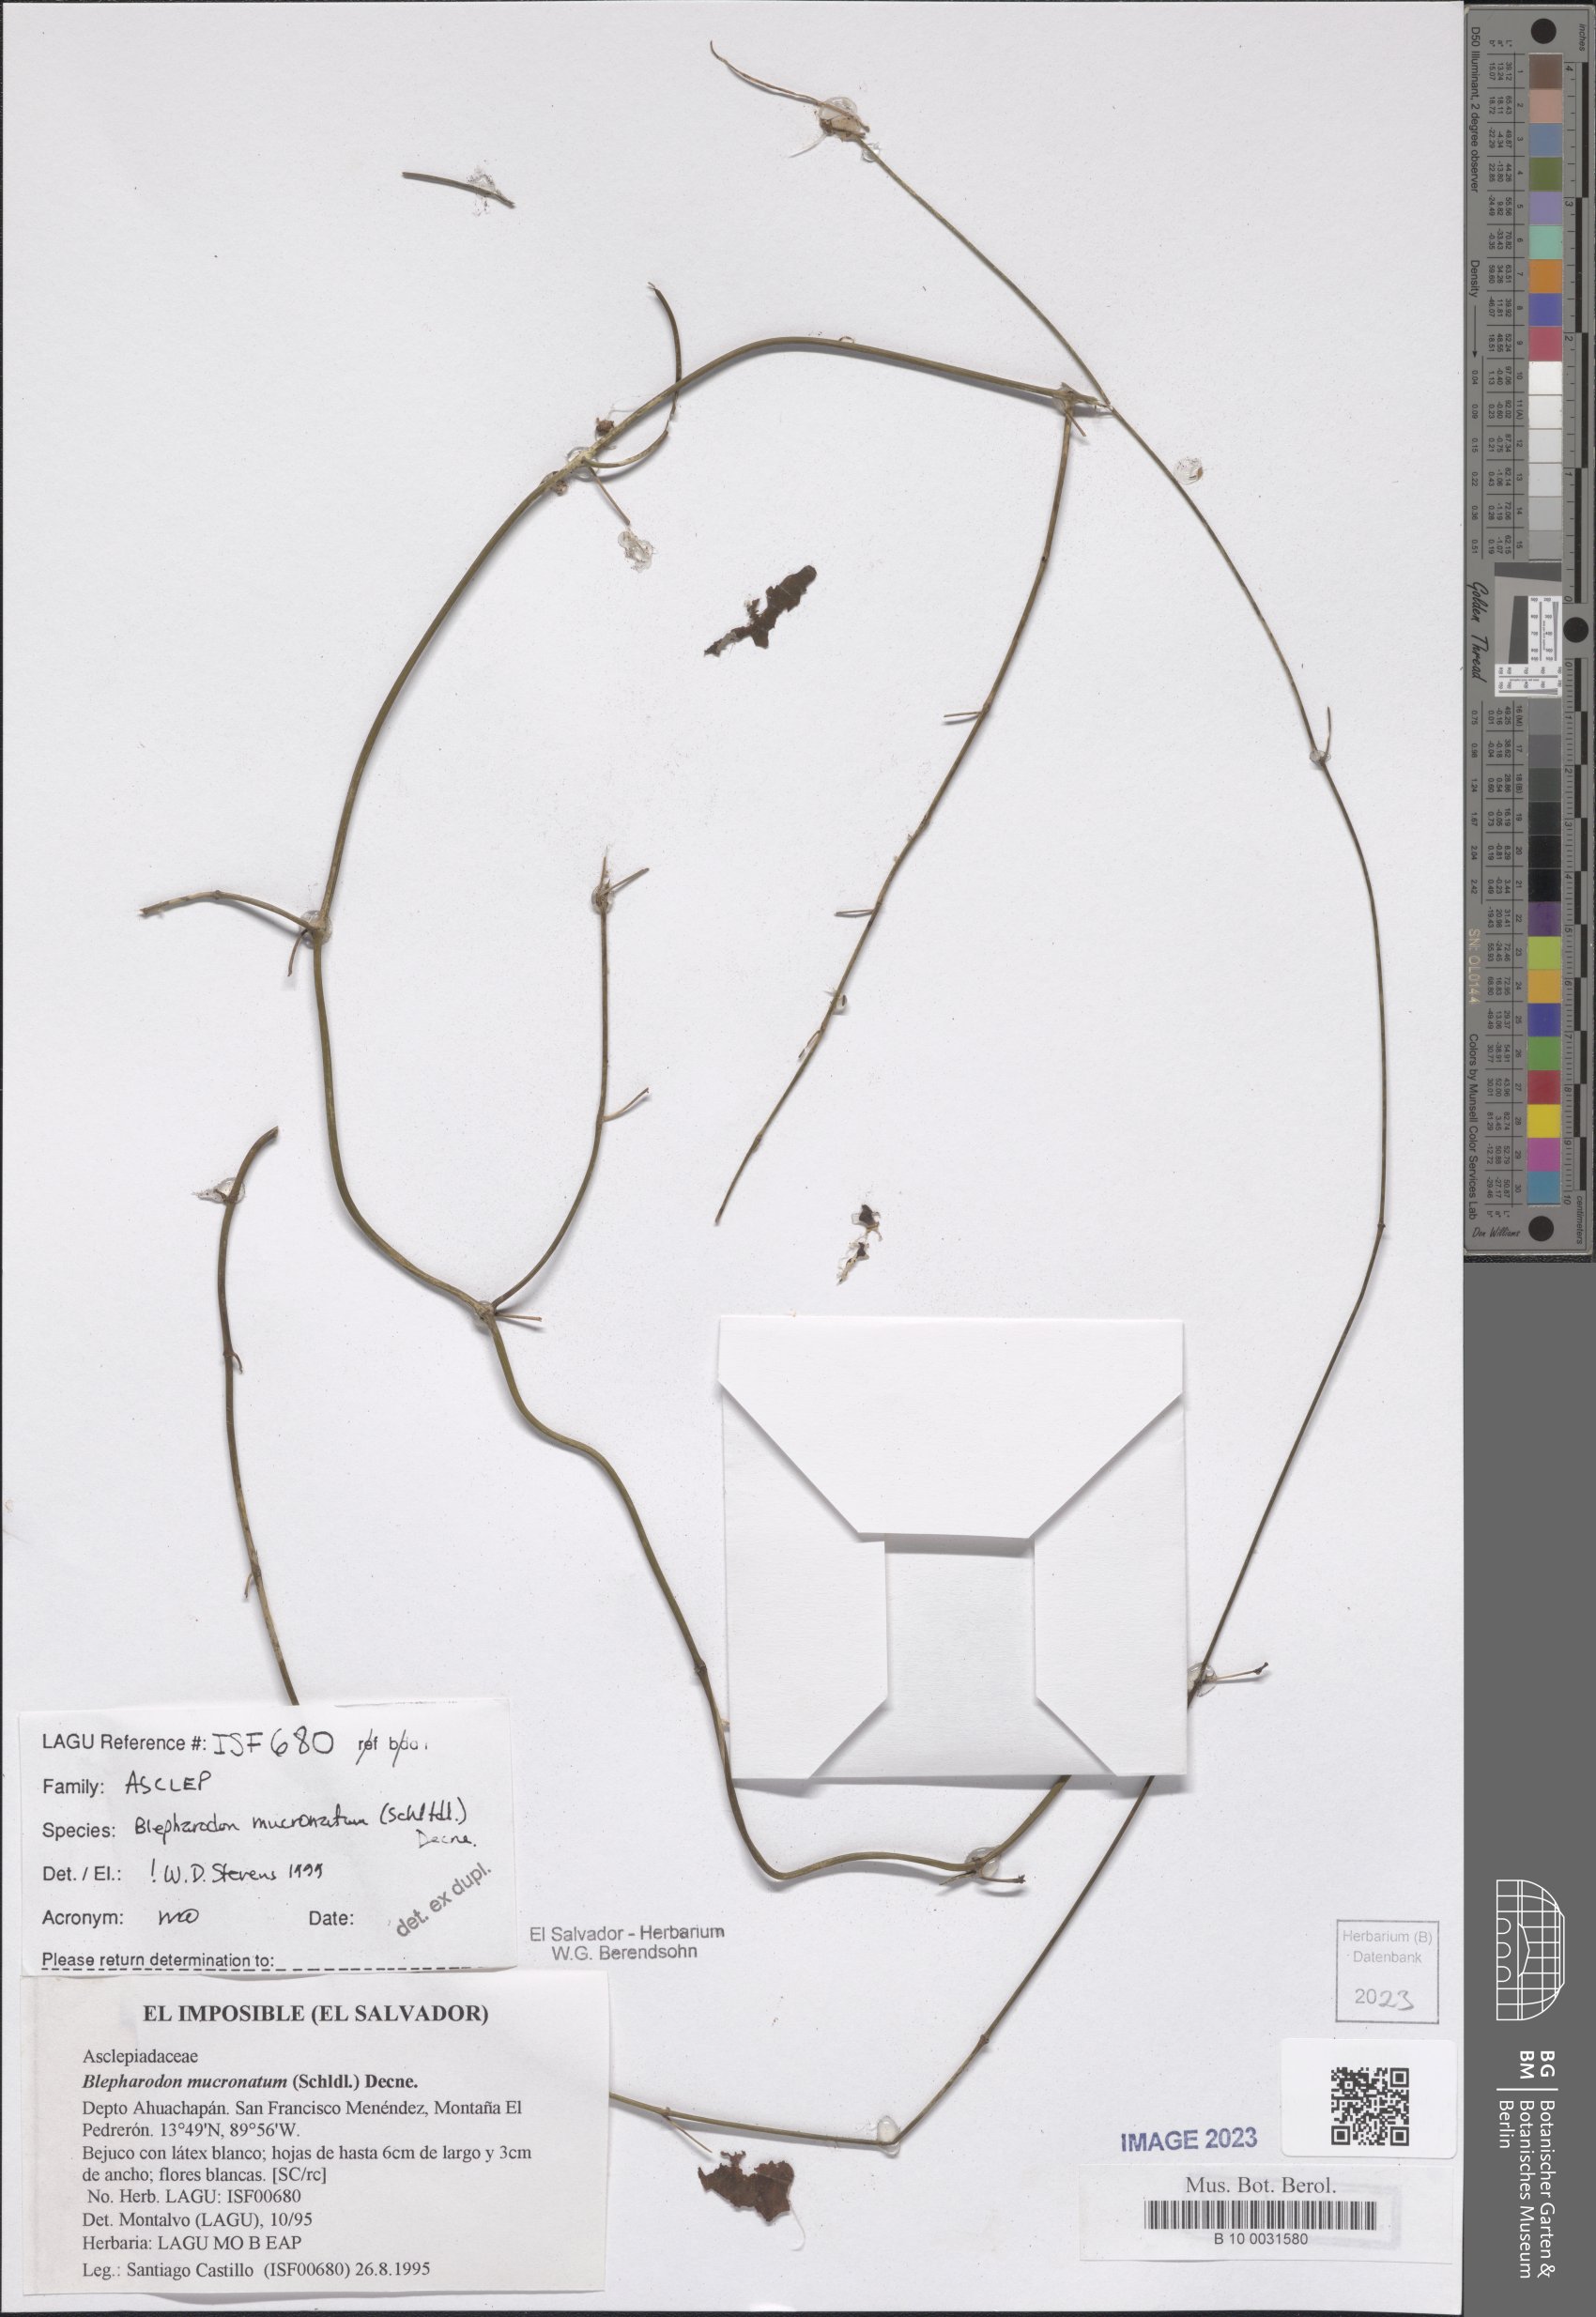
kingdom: Plantae
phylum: Tracheophyta
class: Magnoliopsida
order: Gentianales
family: Apocynaceae
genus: Vailia
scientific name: Vailia anomala
